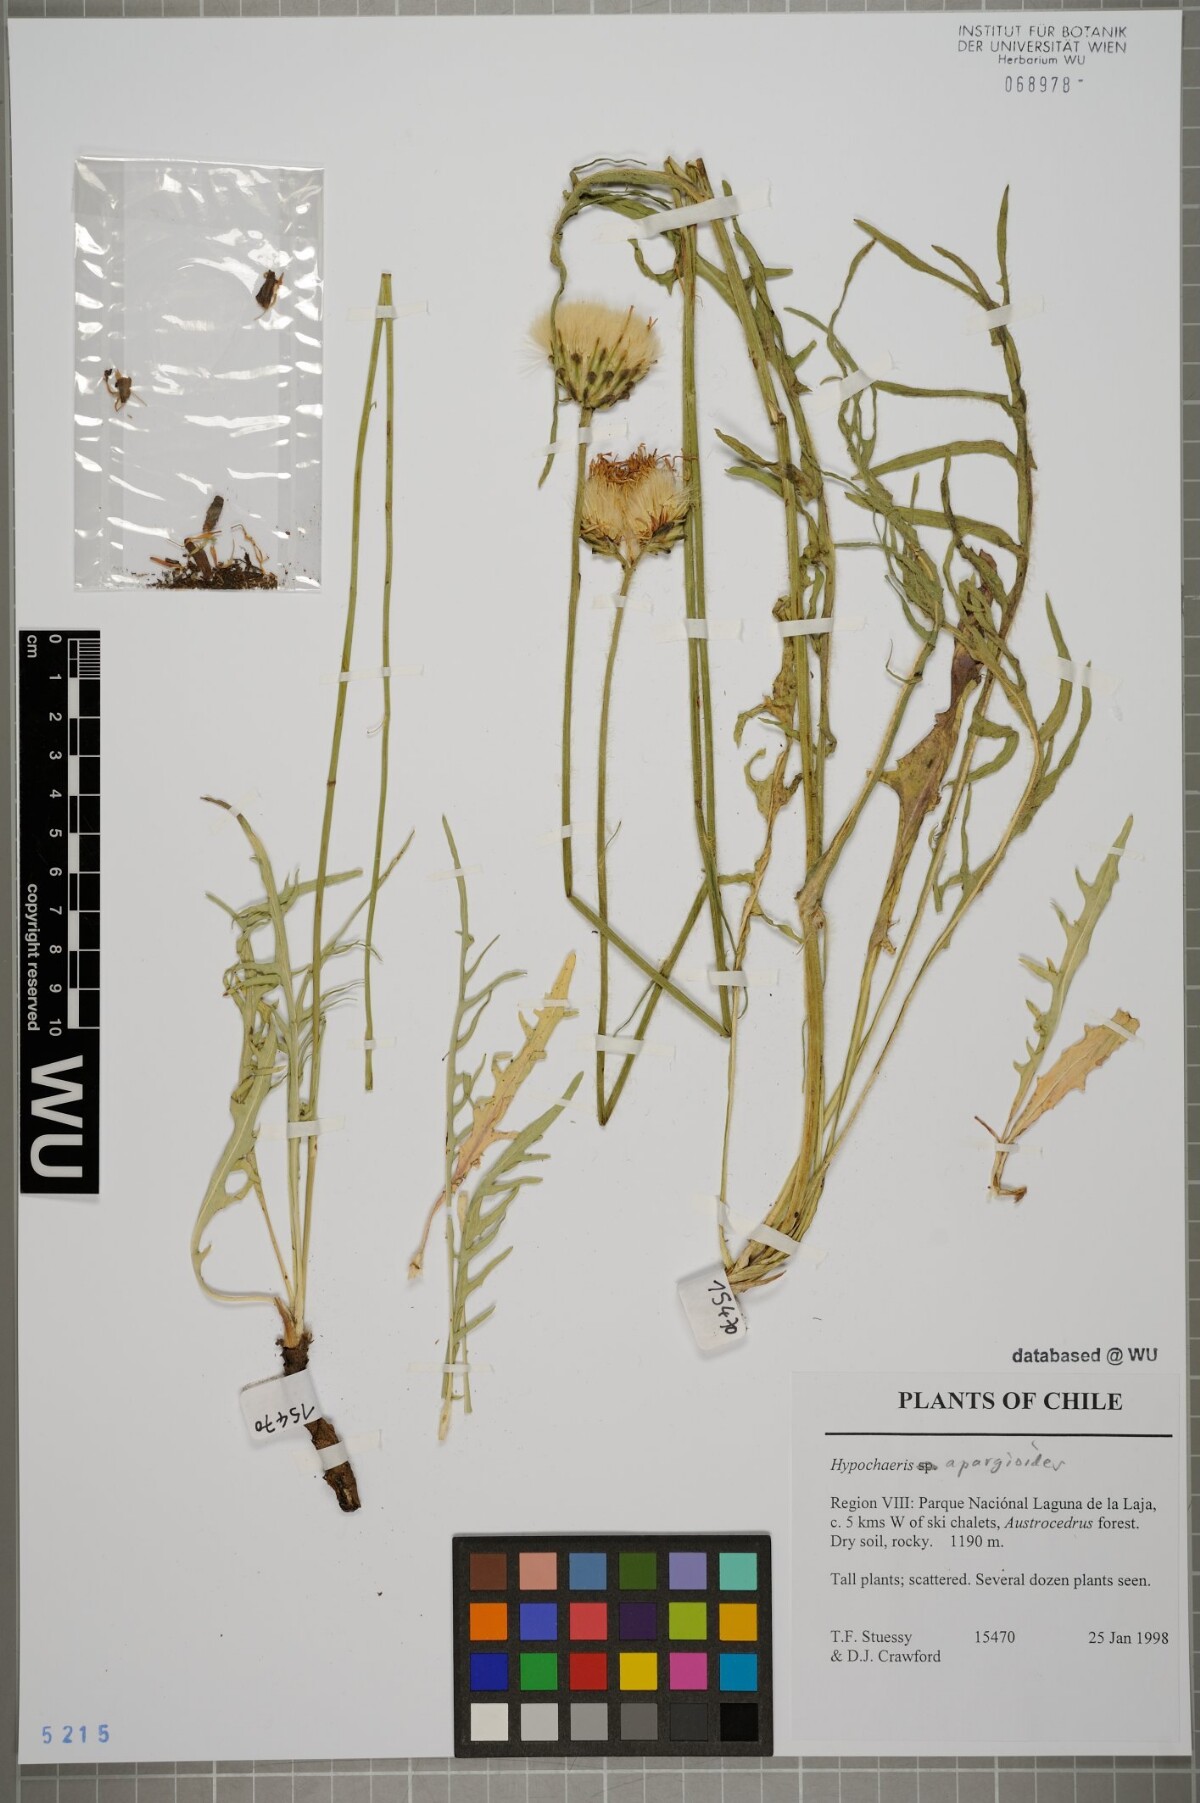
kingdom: Plantae
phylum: Tracheophyta
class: Magnoliopsida
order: Asterales
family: Asteraceae
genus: Hypochaeris
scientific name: Hypochaeris apargioides
